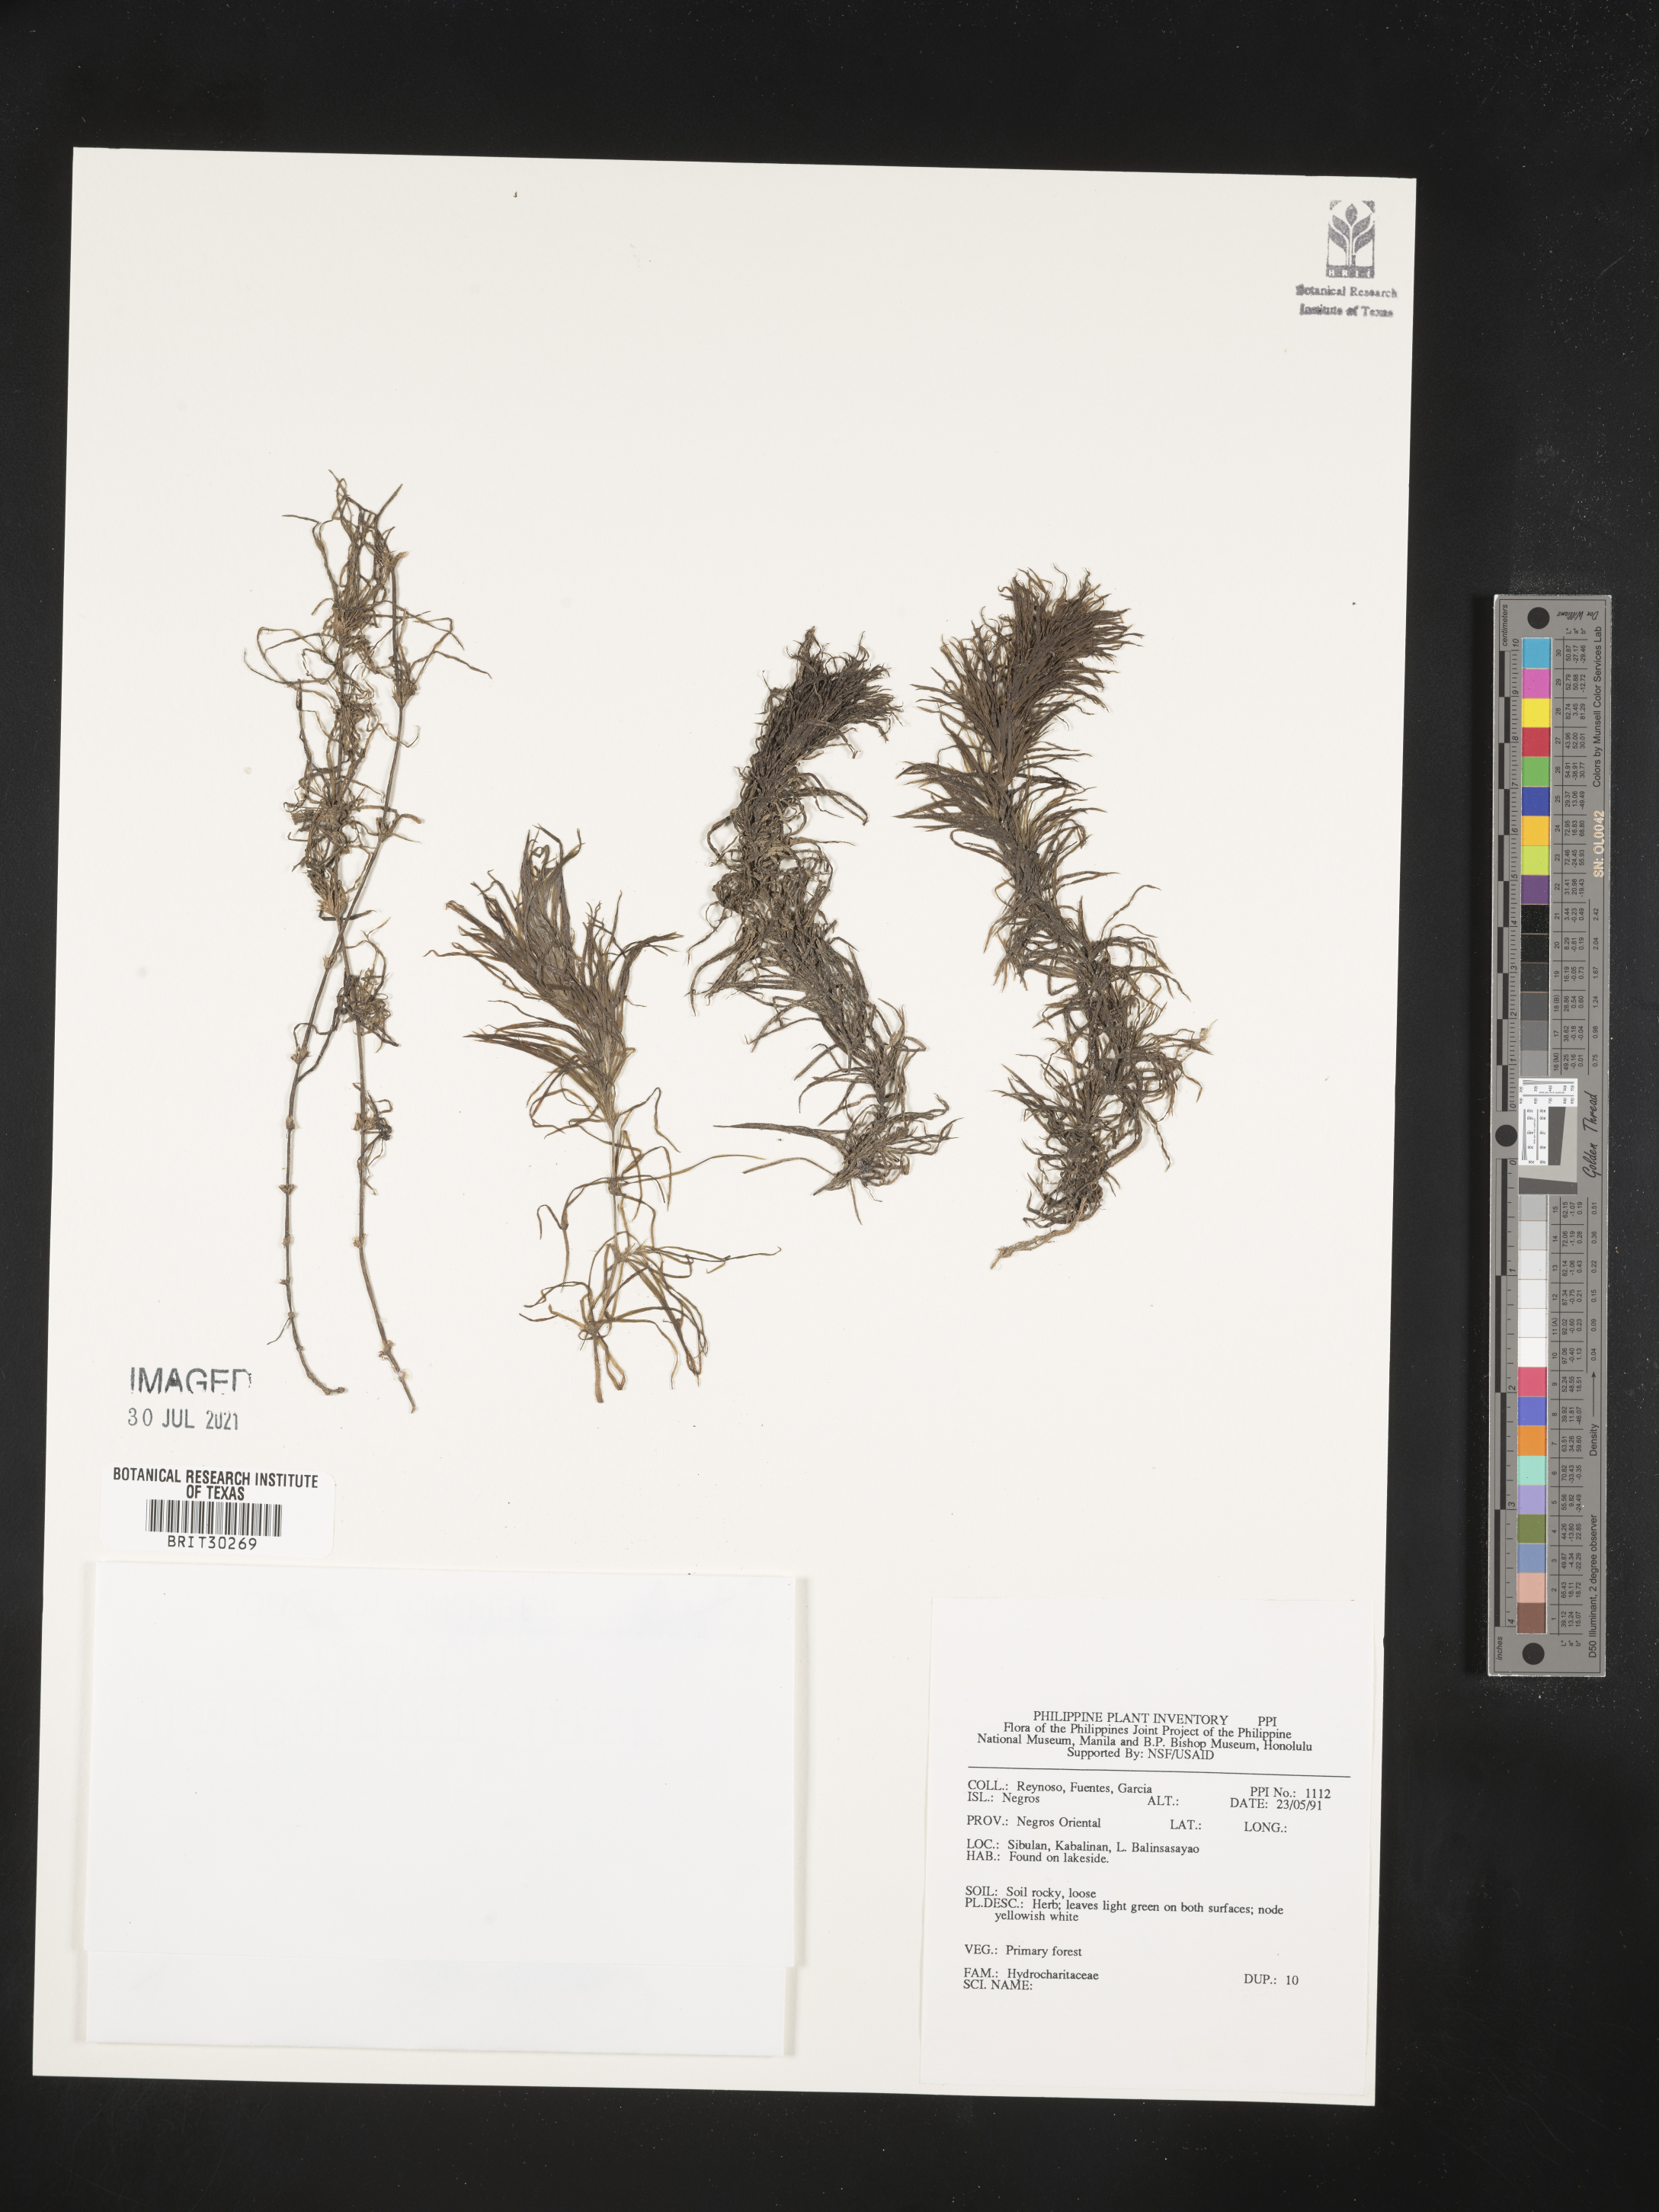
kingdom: Plantae
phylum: Tracheophyta
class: Liliopsida
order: Alismatales
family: Hydrocharitaceae
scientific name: Hydrocharitaceae
